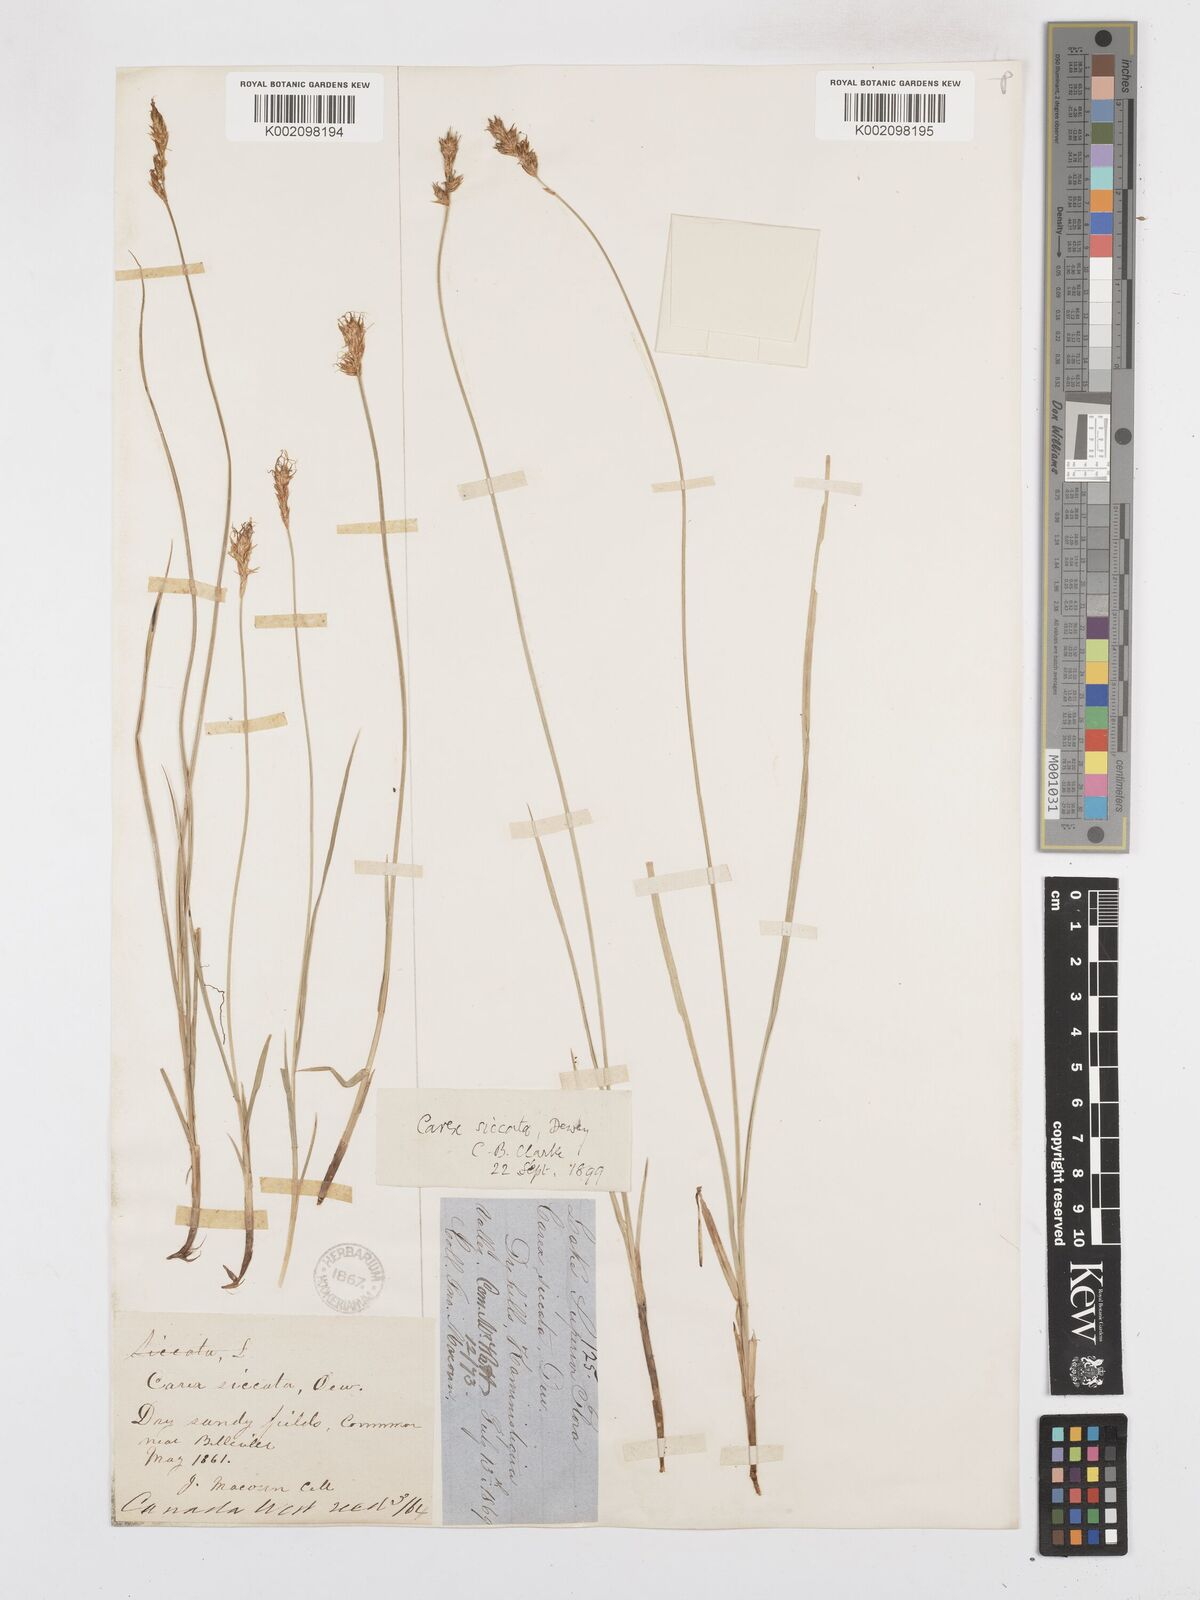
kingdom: Plantae
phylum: Tracheophyta
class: Liliopsida
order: Poales
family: Cyperaceae
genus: Carex
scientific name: Carex foenea
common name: Bronze sedge
